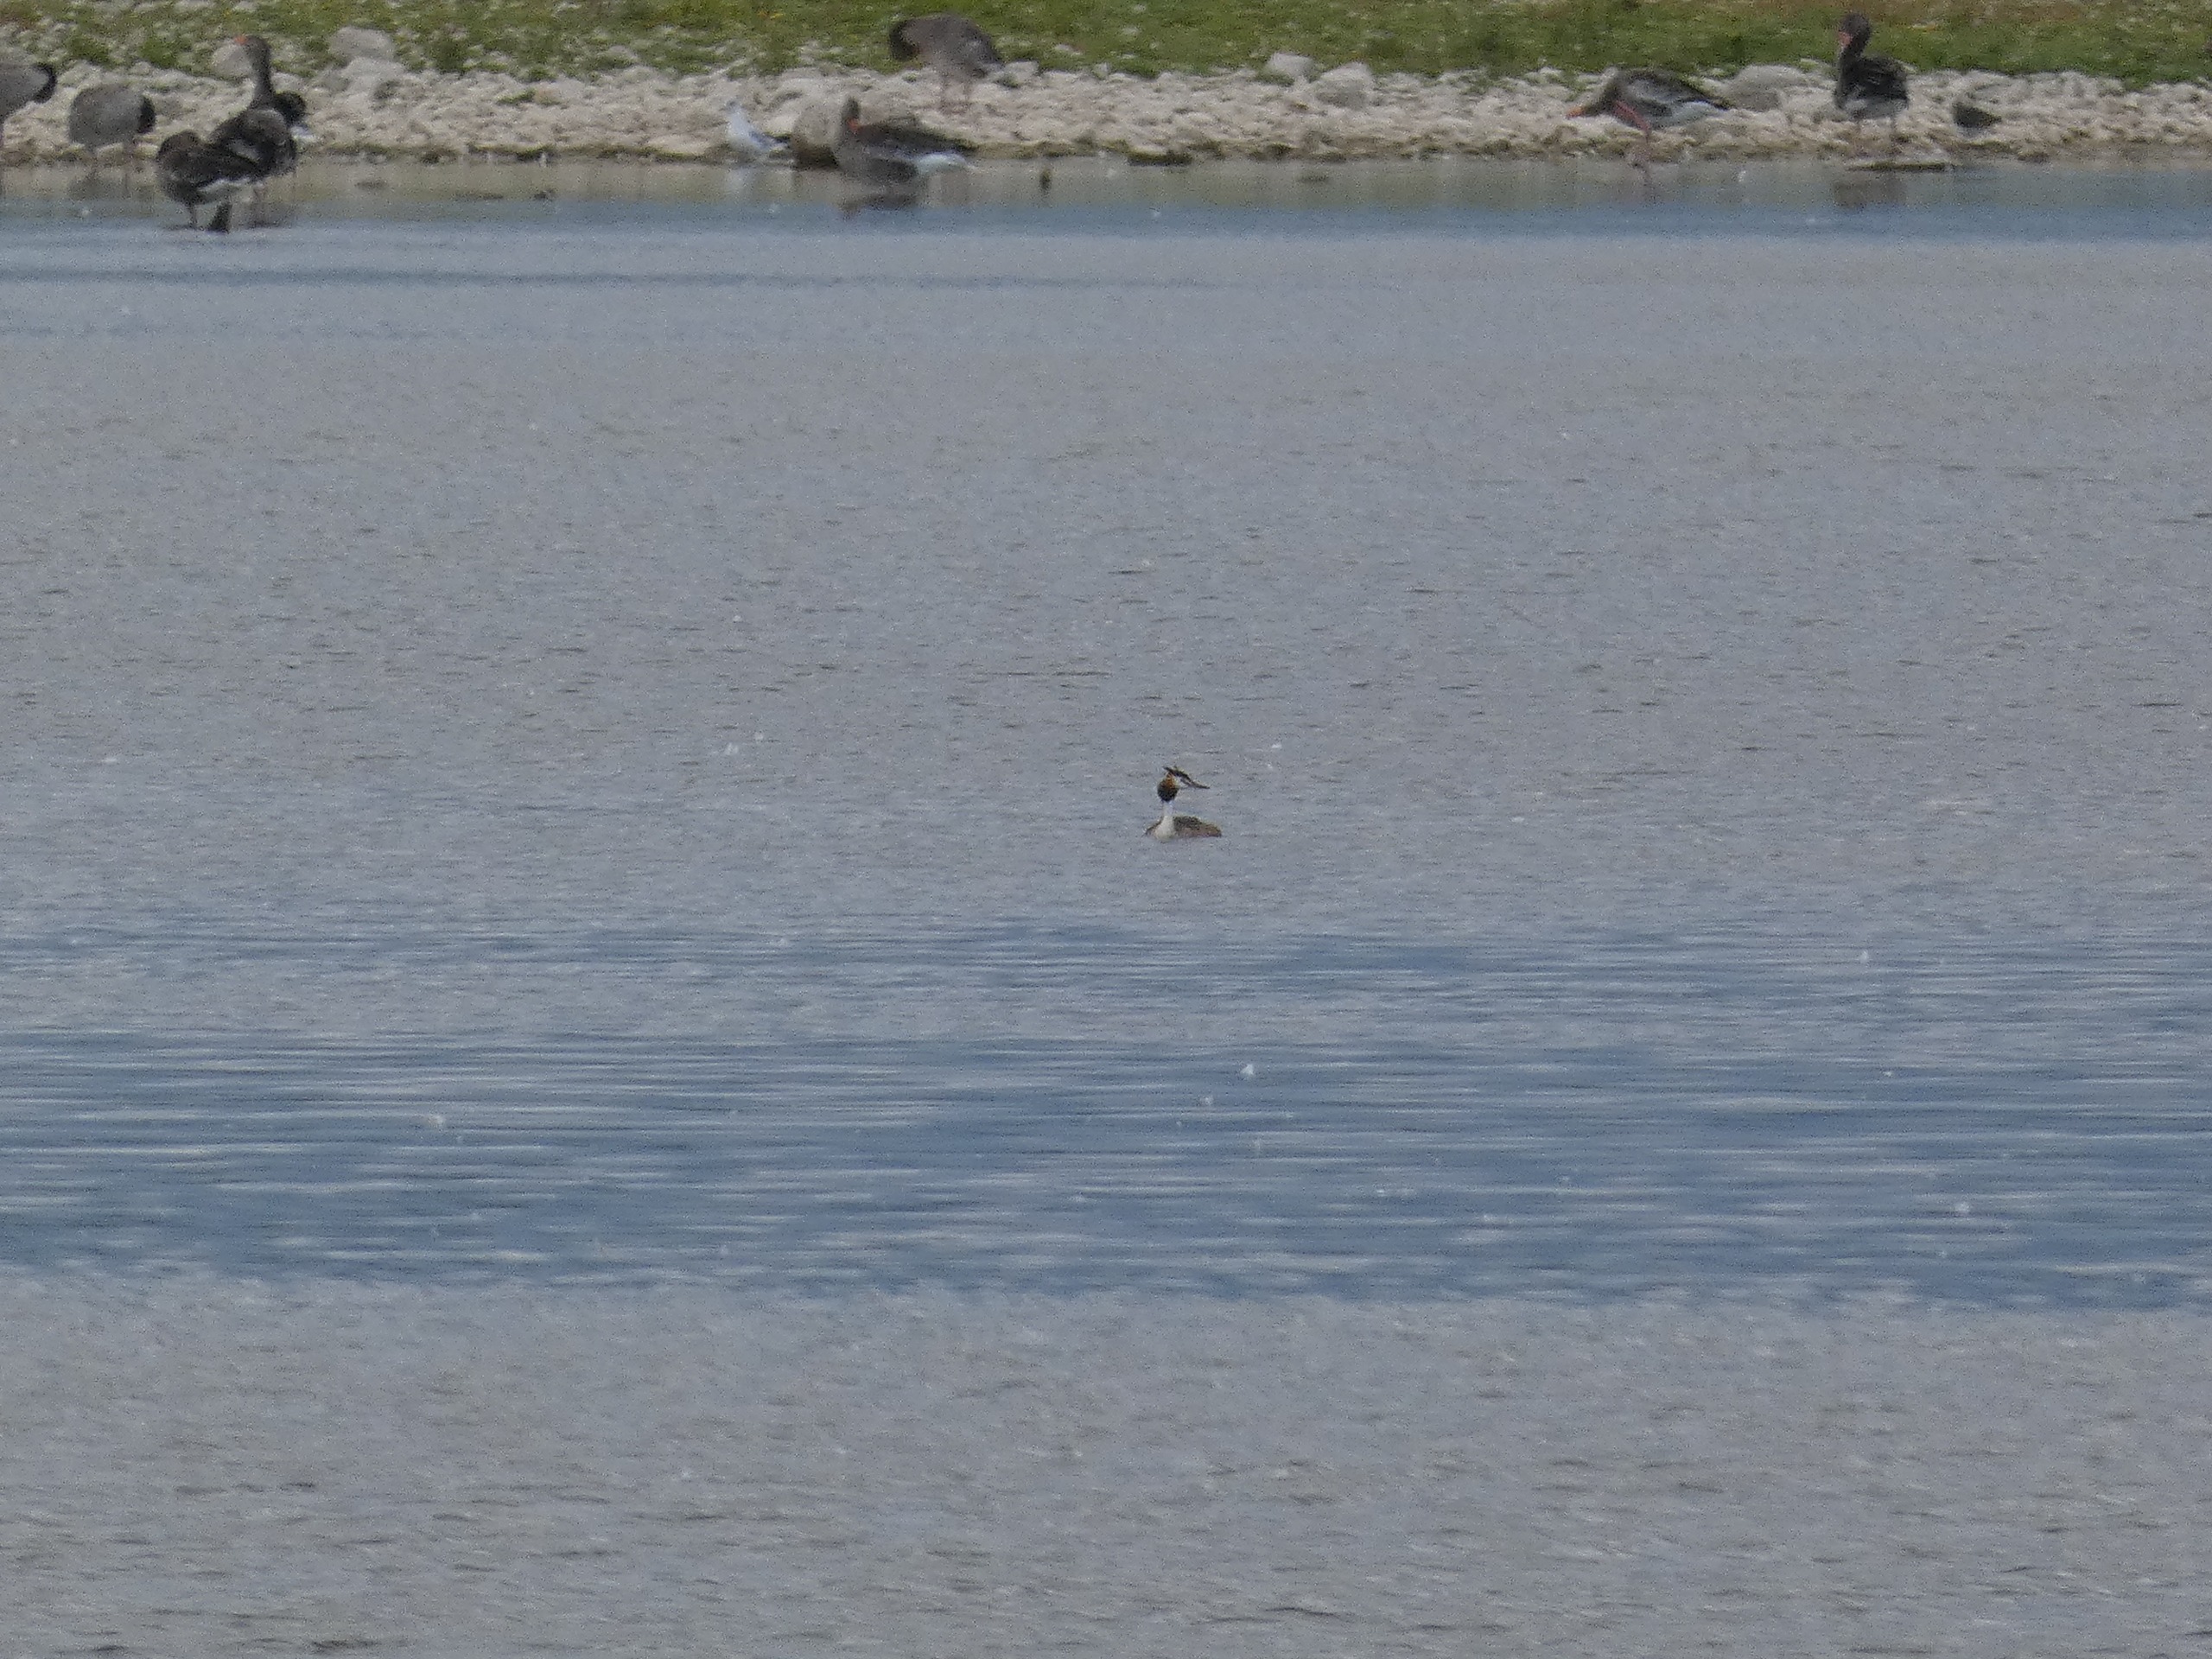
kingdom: Animalia
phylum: Chordata
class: Aves
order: Podicipediformes
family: Podicipedidae
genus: Podiceps
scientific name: Podiceps cristatus
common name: Toppet lappedykker
